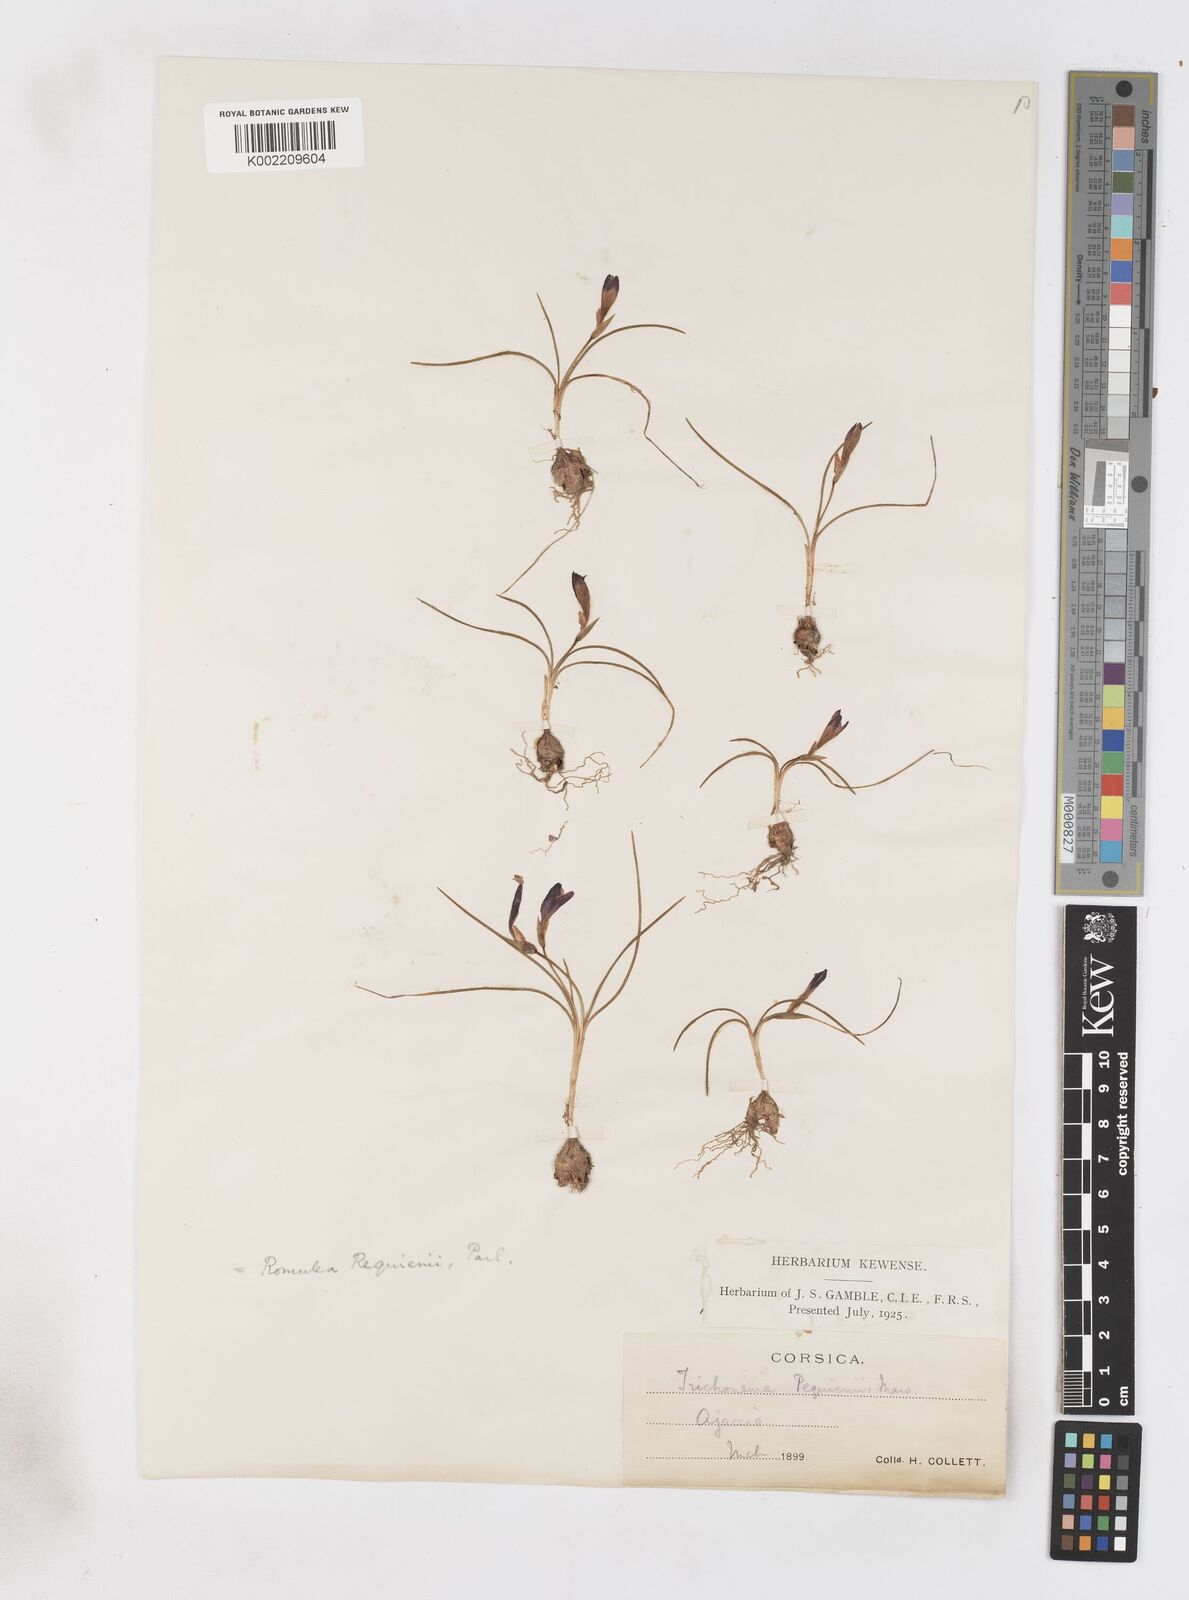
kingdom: Plantae
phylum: Tracheophyta
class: Liliopsida
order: Asparagales
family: Iridaceae
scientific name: Iridaceae
